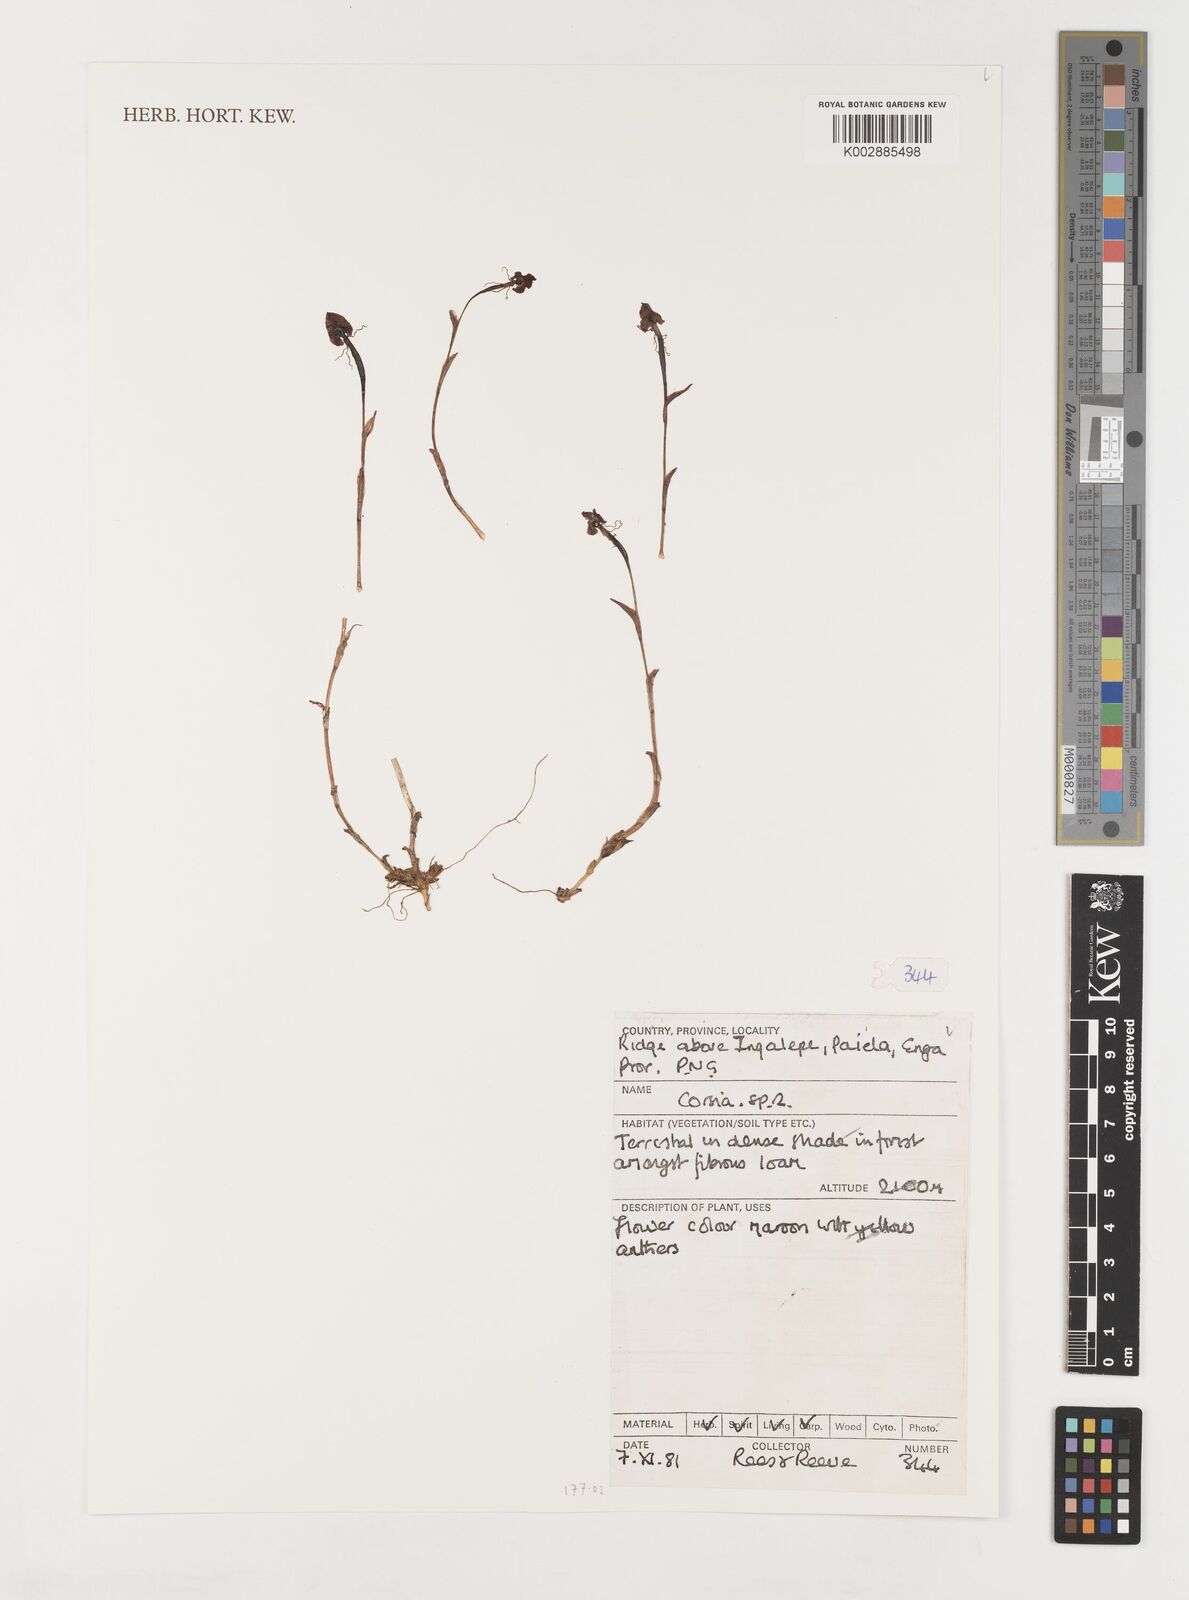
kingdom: Plantae
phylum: Tracheophyta
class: Liliopsida
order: Liliales
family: Corsiaceae
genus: Corsia
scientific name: Corsia
